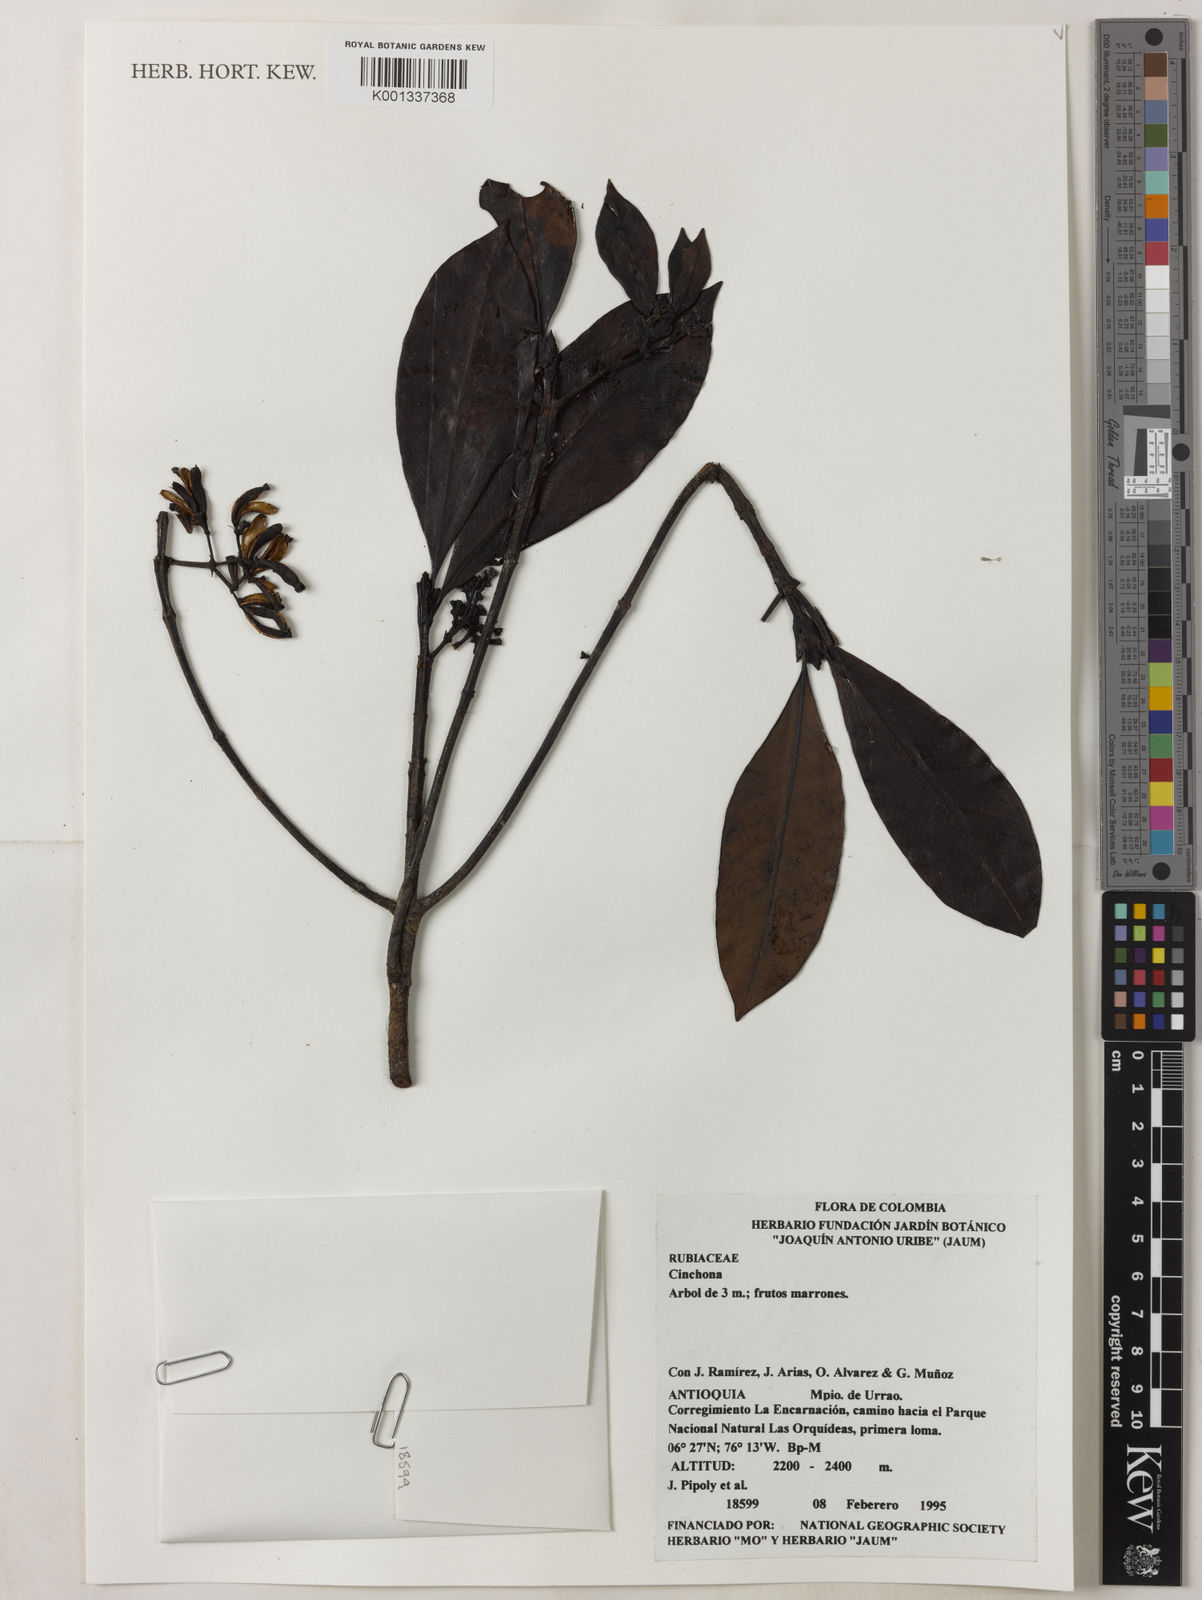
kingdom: Plantae
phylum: Tracheophyta
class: Magnoliopsida
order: Gentianales
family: Rubiaceae
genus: Cinchona
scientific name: Cinchona
